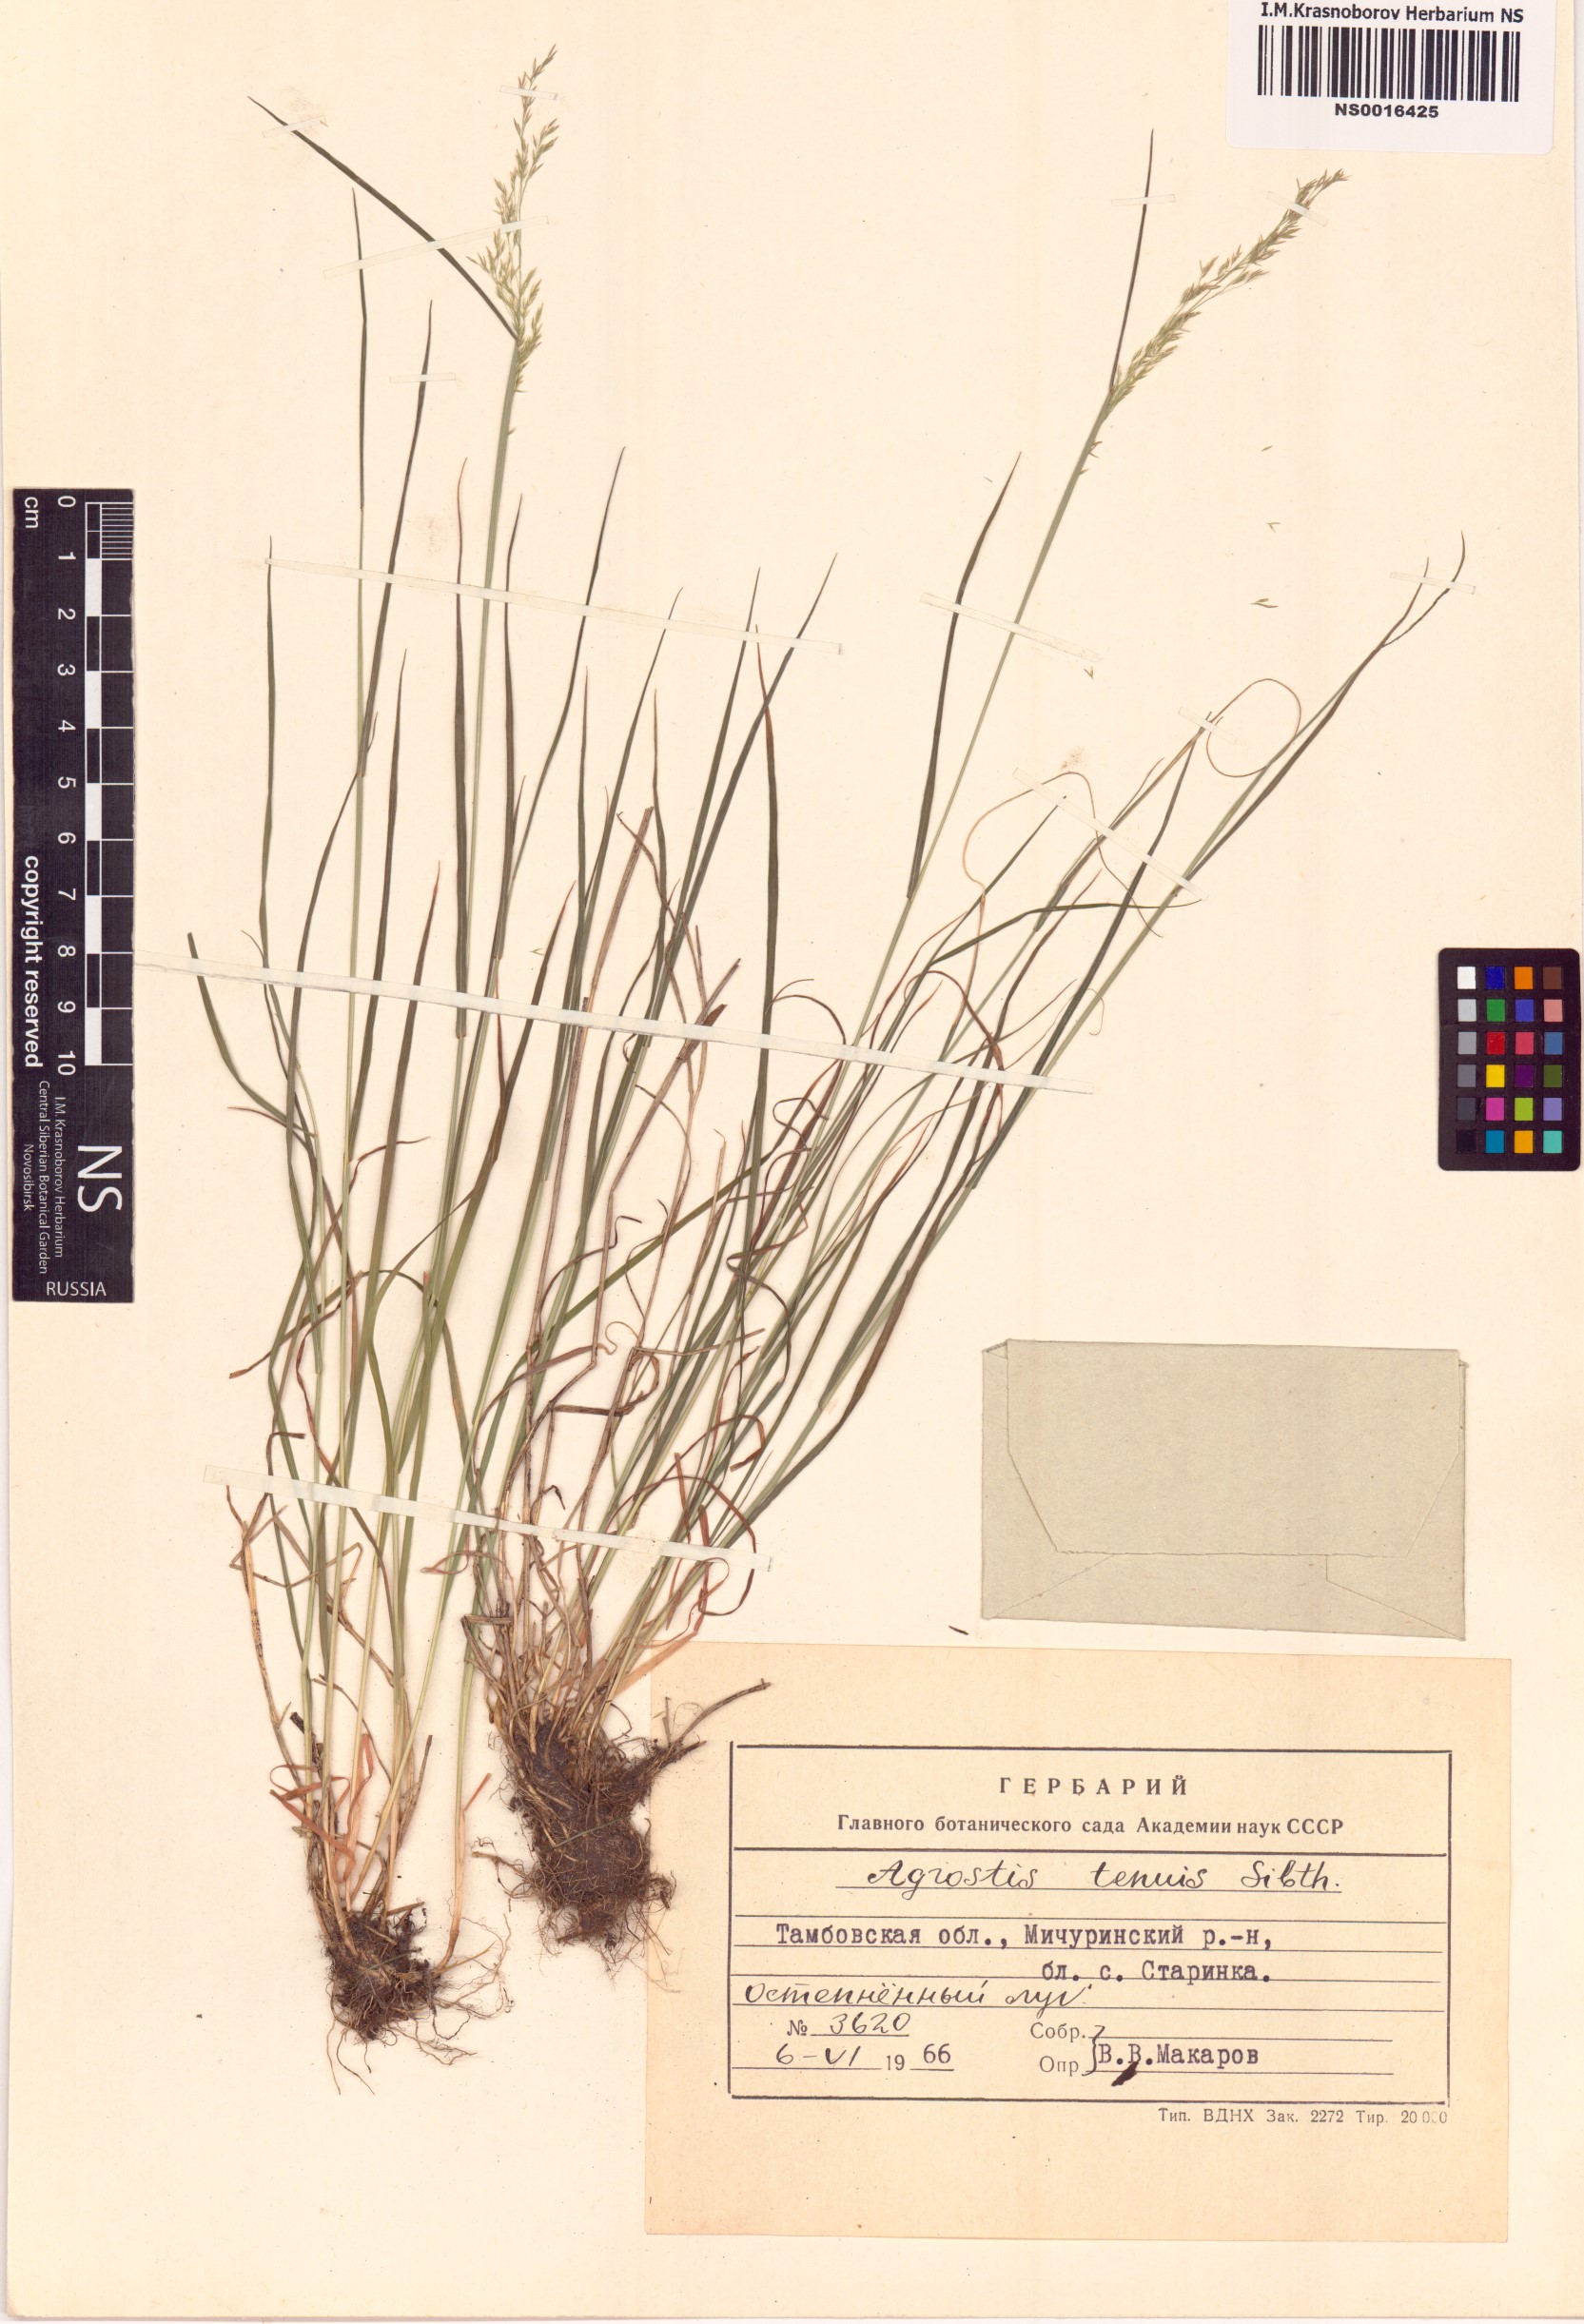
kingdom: Plantae
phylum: Tracheophyta
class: Liliopsida
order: Poales
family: Poaceae
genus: Agrostis
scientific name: Agrostis capillaris
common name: Colonial bentgrass
